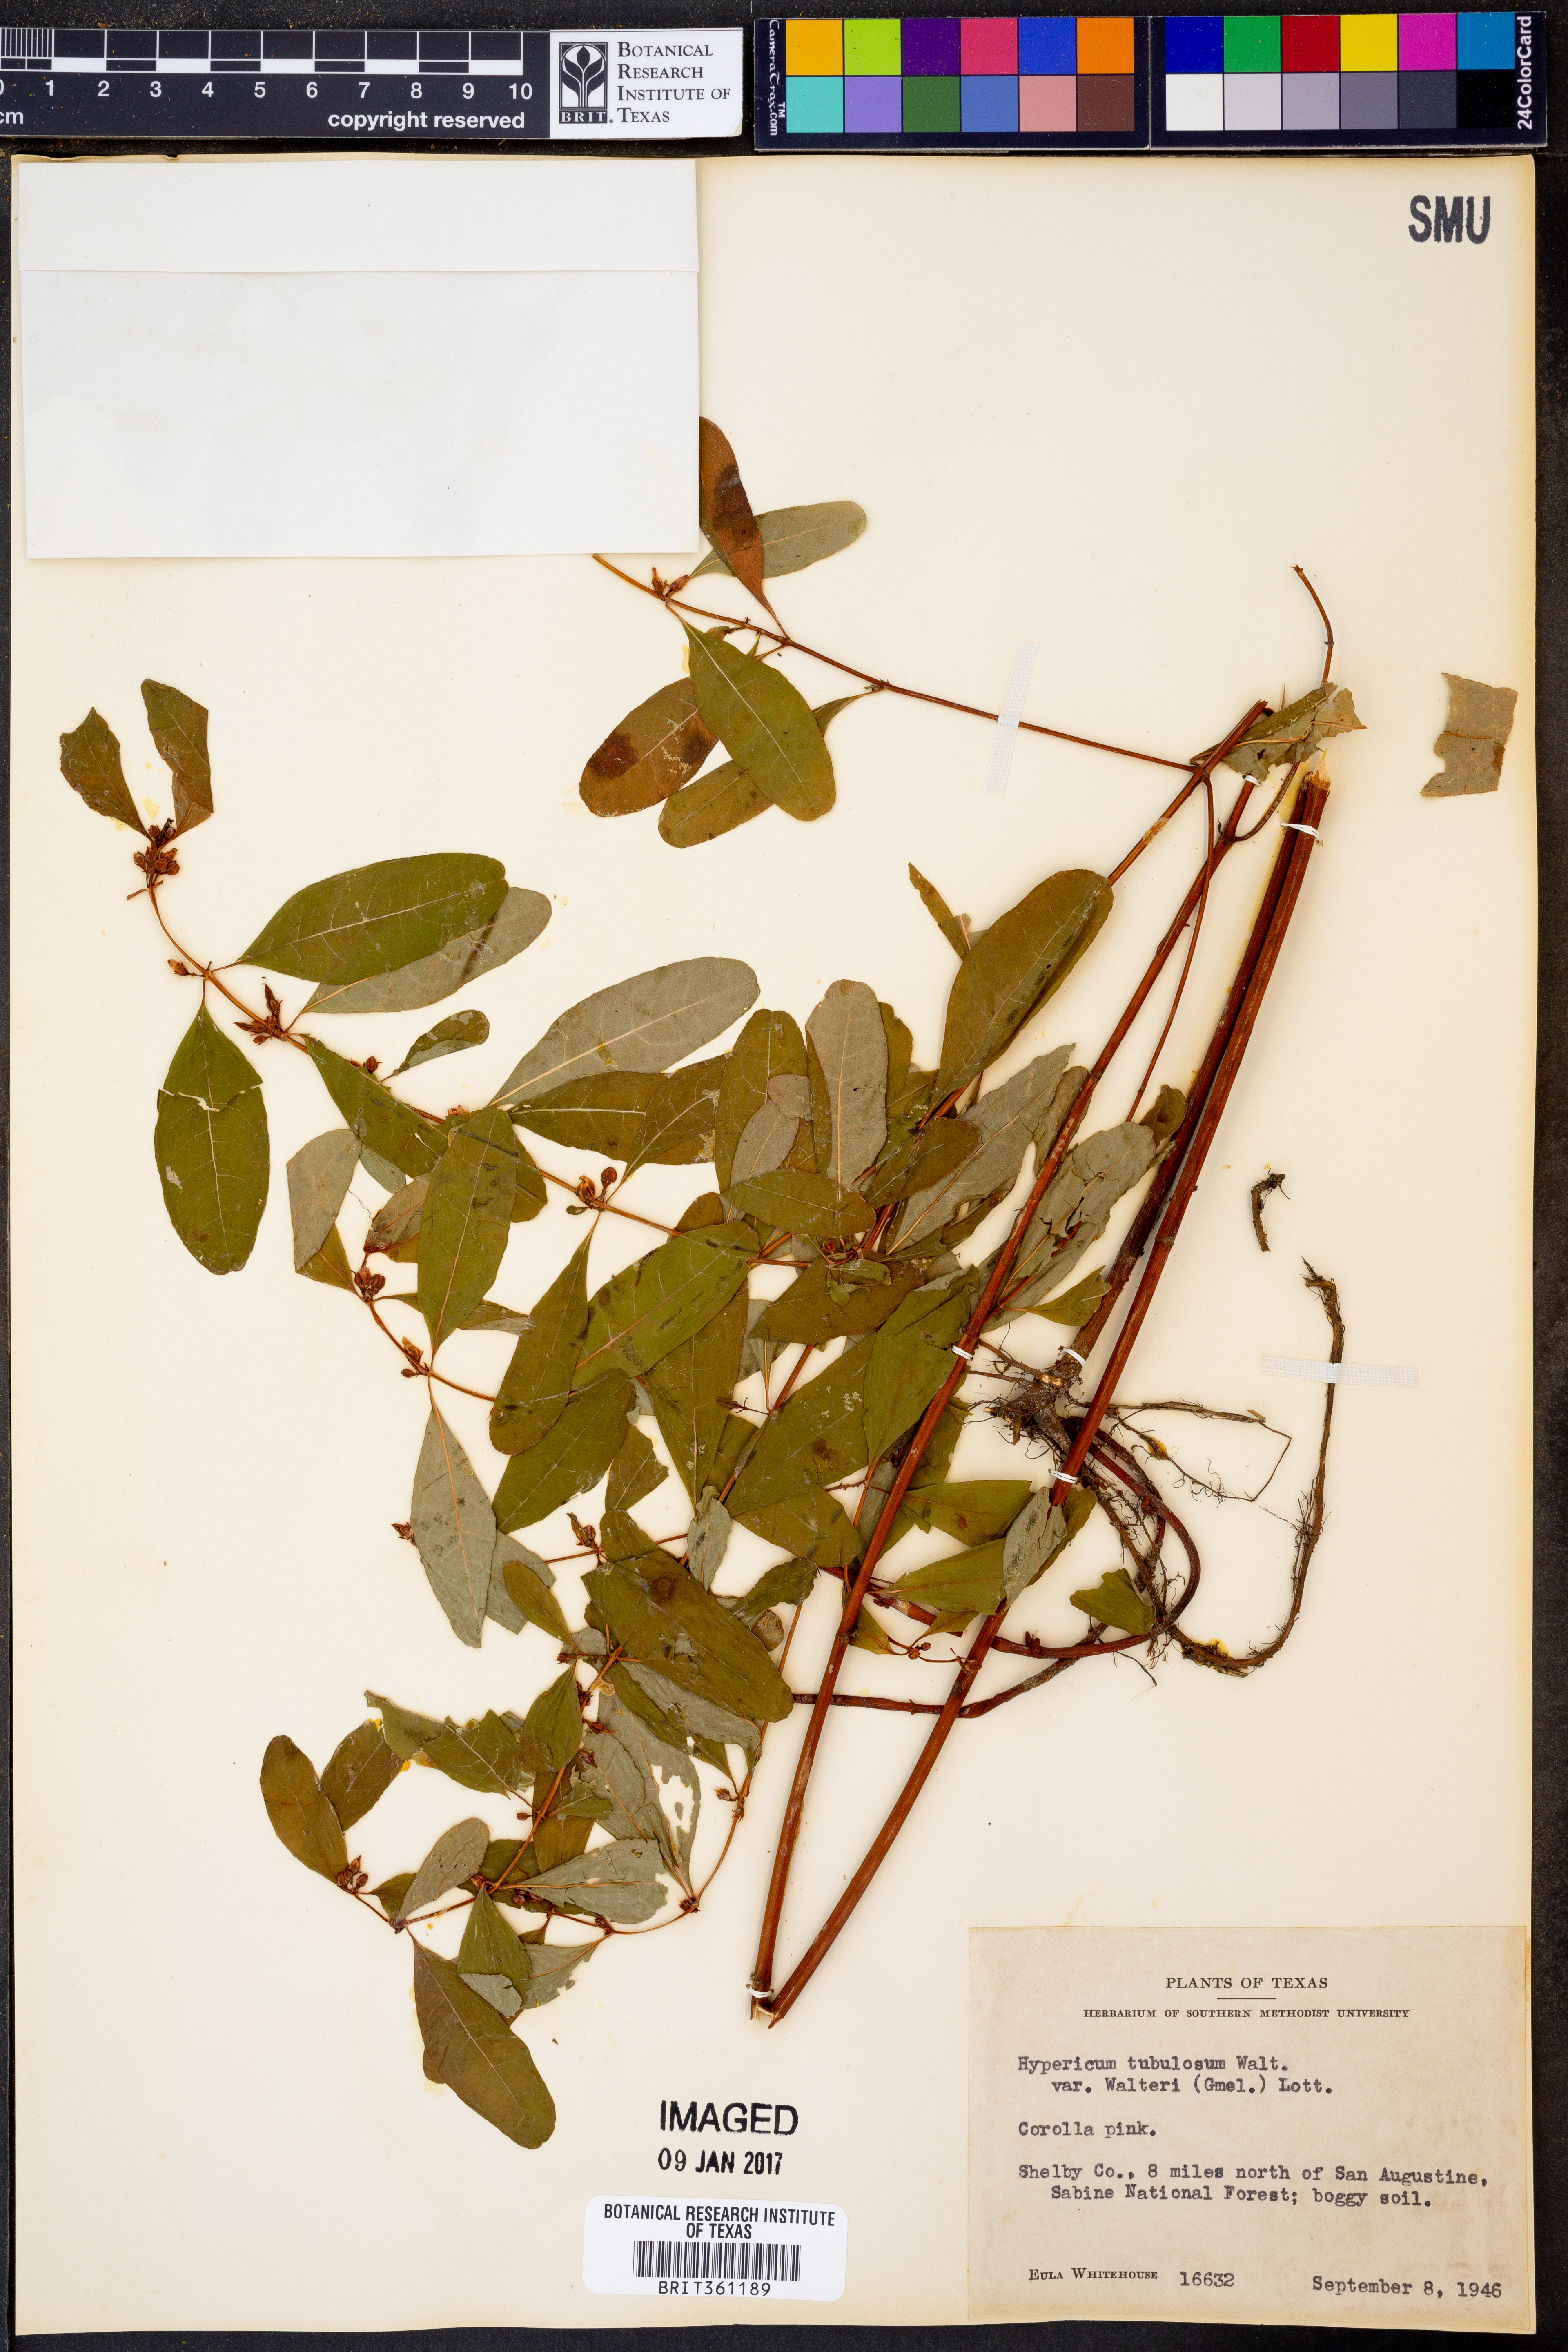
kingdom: Plantae
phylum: Tracheophyta
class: Magnoliopsida
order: Malpighiales
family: Hypericaceae
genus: Triadenum
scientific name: Triadenum walteri
